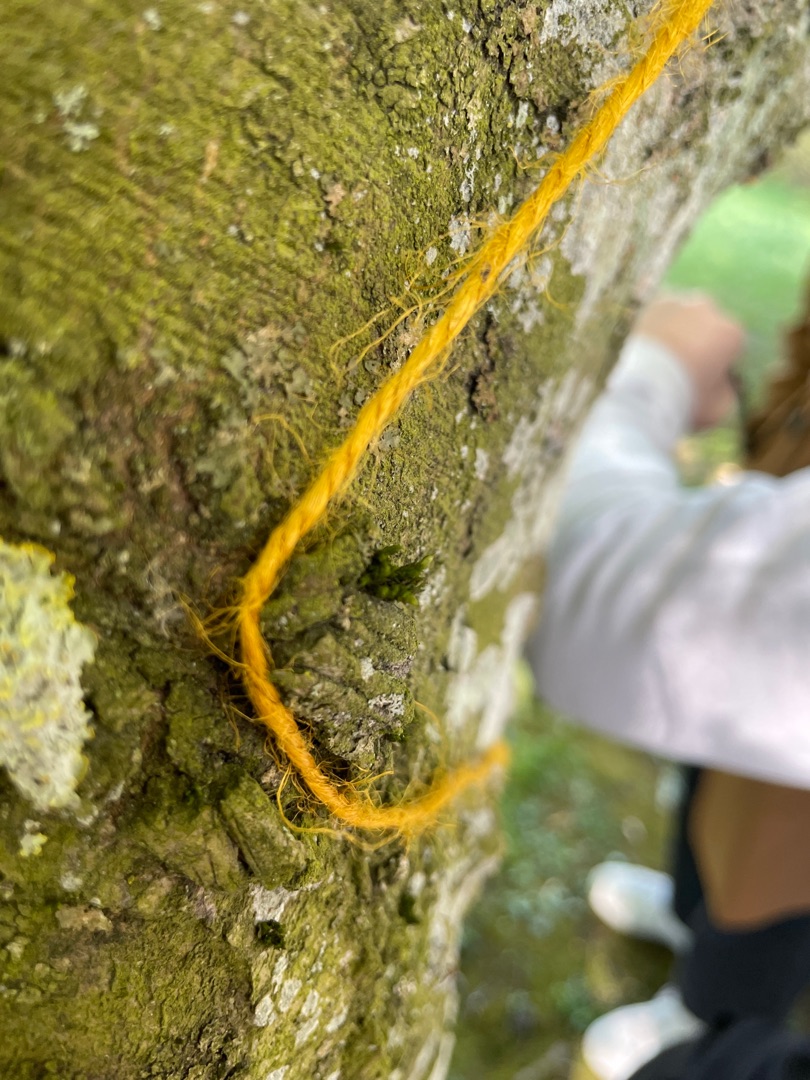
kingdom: Plantae
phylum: Bryophyta
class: Bryopsida
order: Orthotrichales
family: Orthotrichaceae
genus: Lewinskya
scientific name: Lewinskya affinis
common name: Almindelig furehætte
